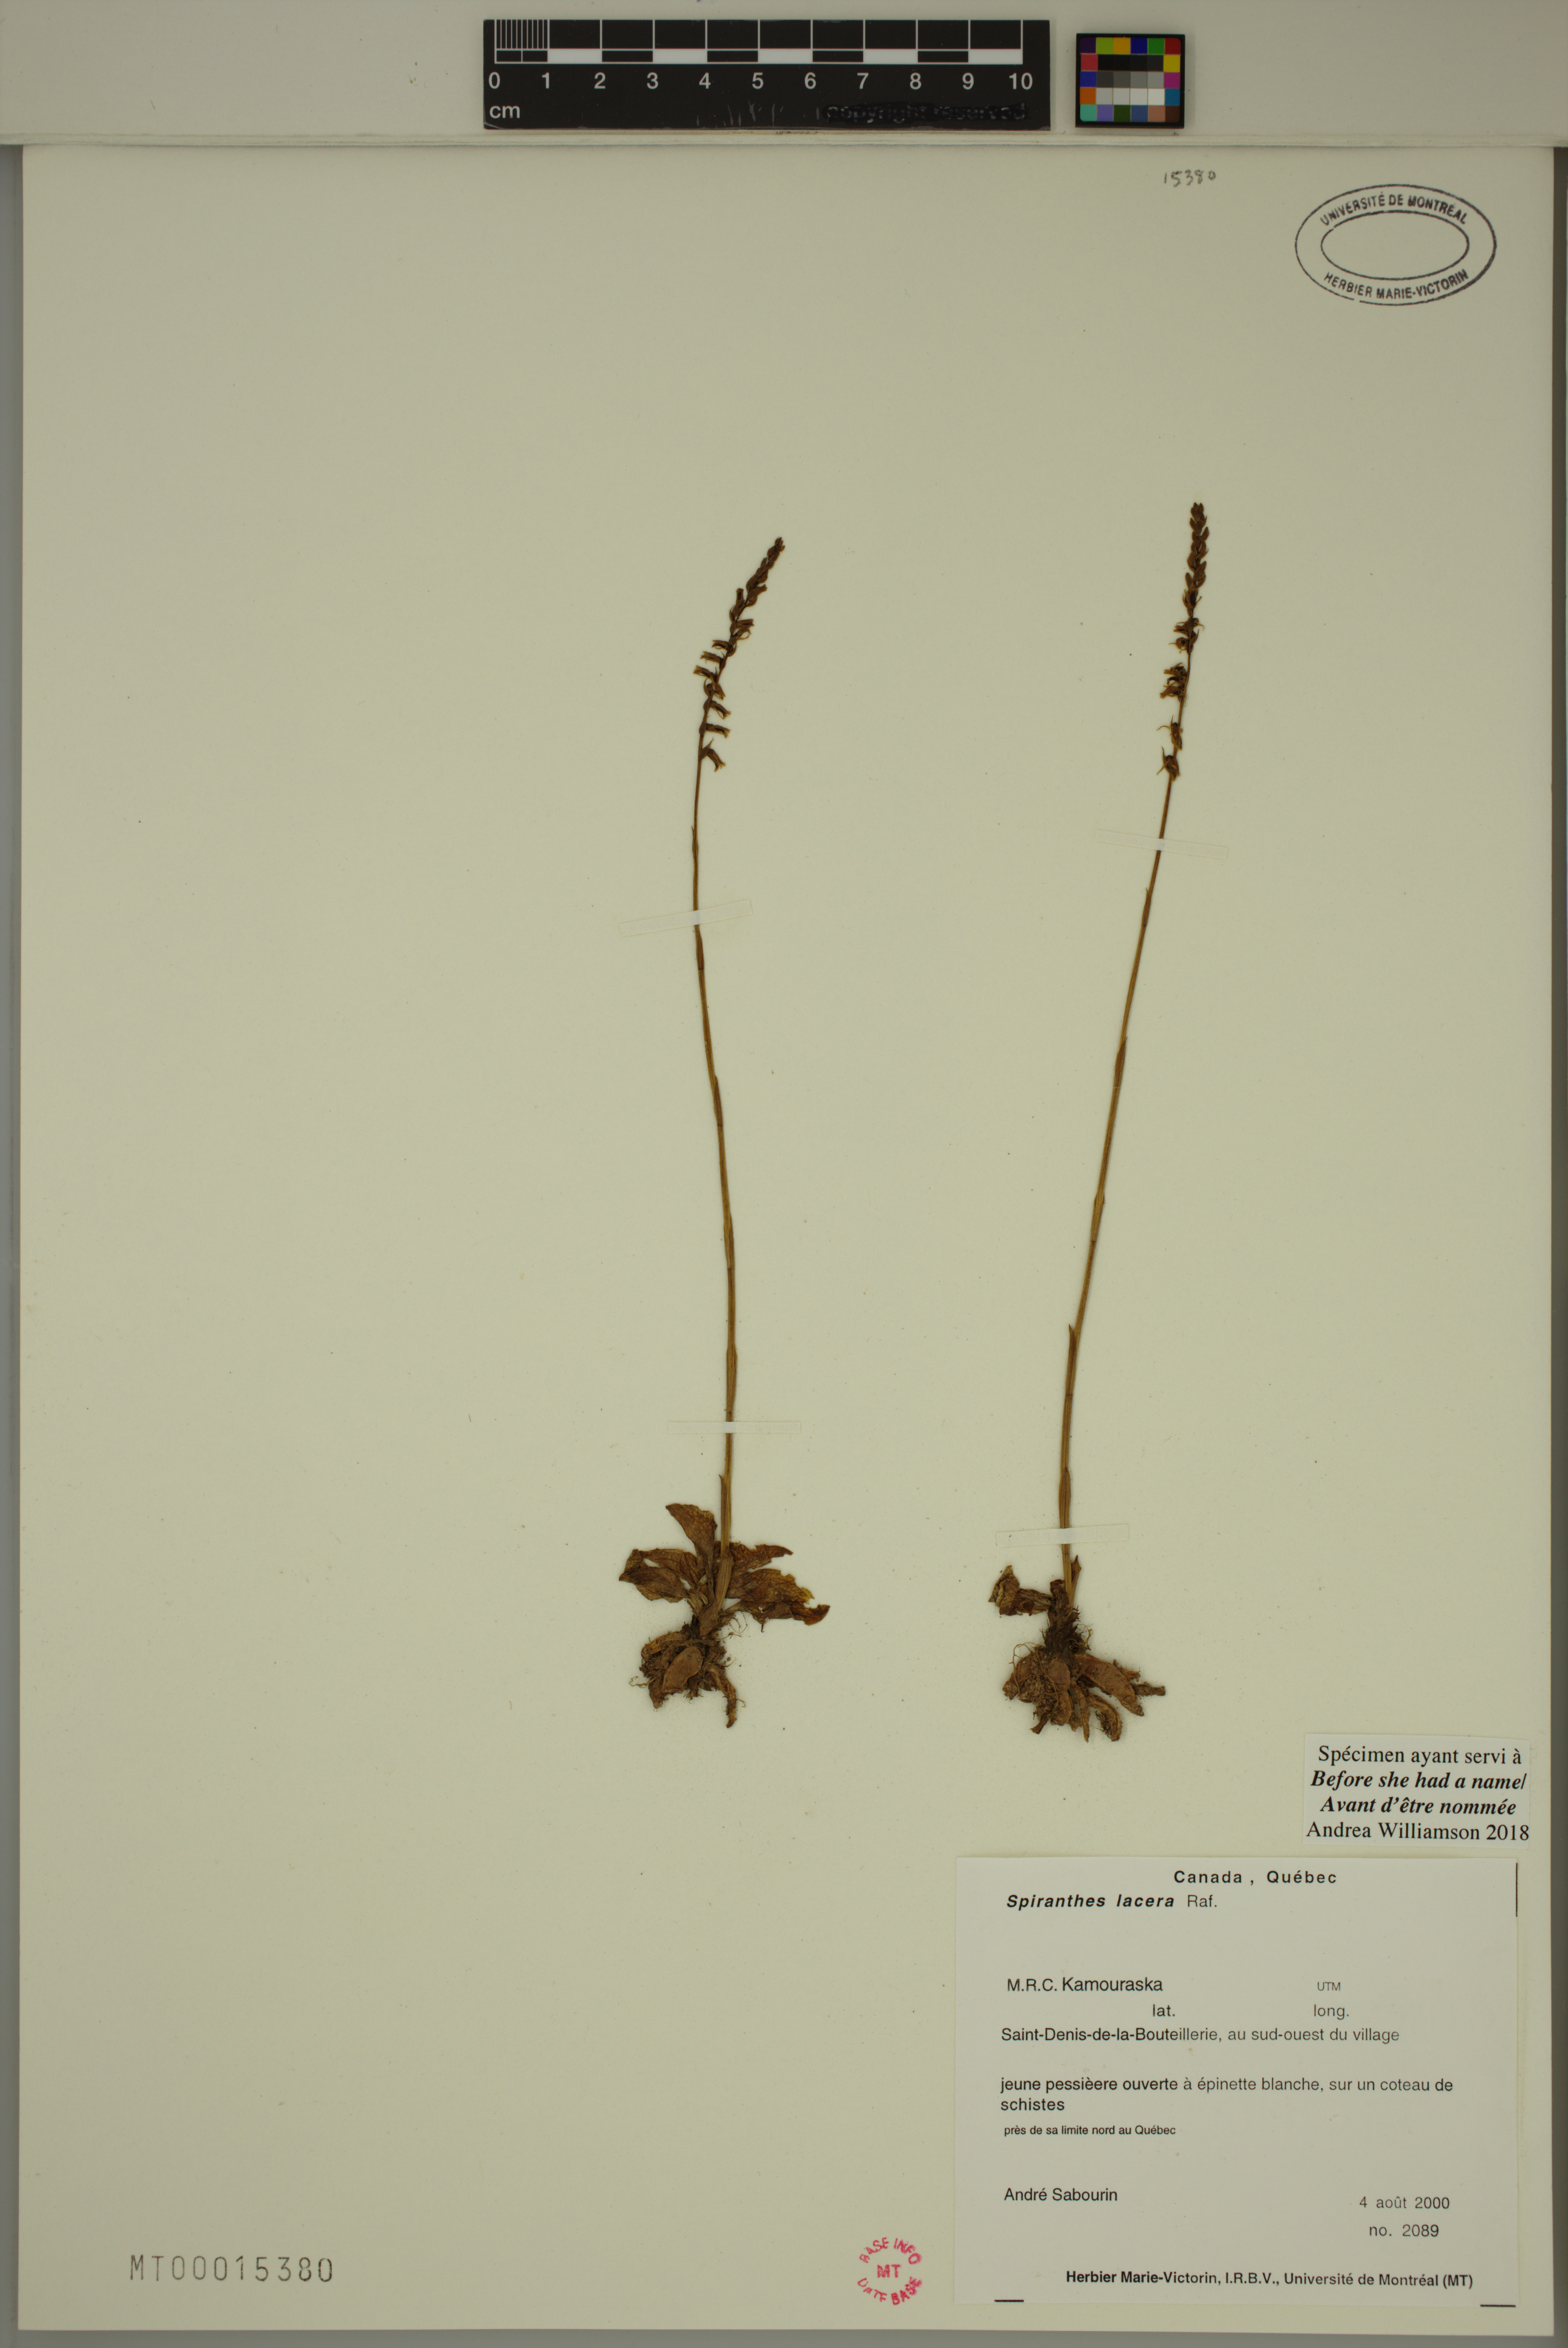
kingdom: Plantae
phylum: Tracheophyta
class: Liliopsida
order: Asparagales
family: Orchidaceae
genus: Spiranthes
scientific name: Spiranthes lacera
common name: Northern slender ladies'-tresses
